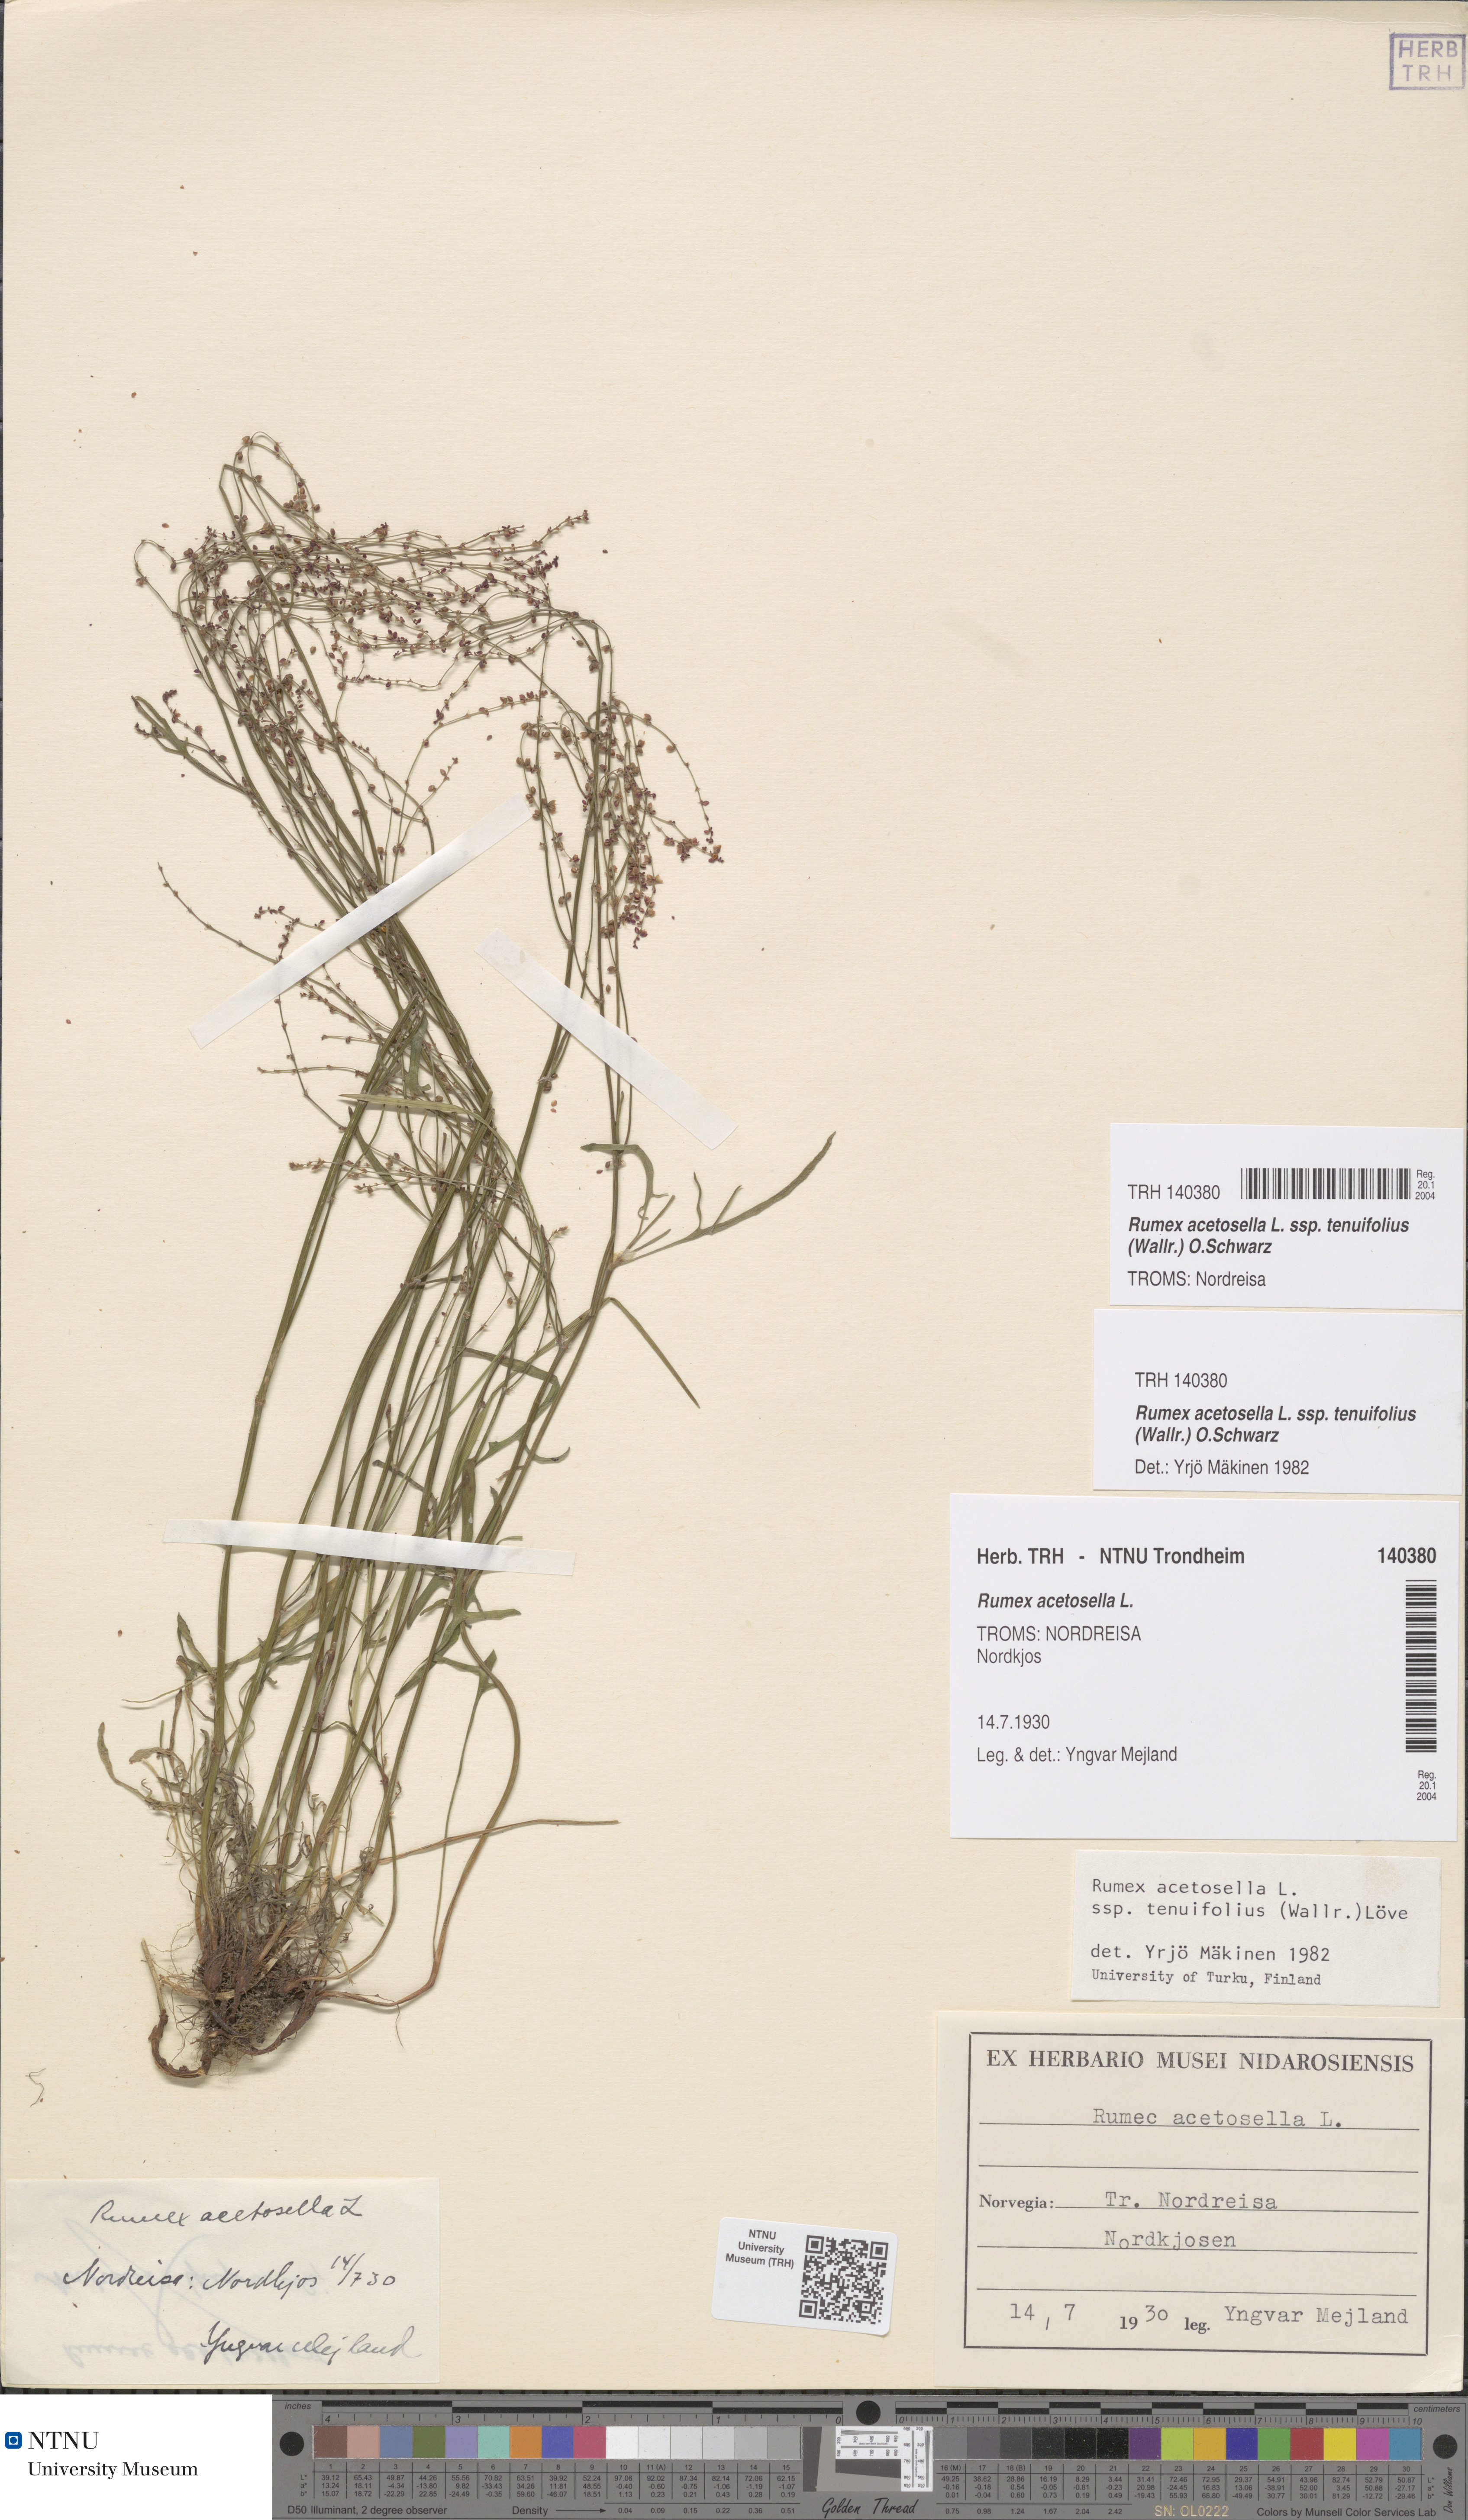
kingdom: Plantae
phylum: Tracheophyta
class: Magnoliopsida
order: Caryophyllales
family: Polygonaceae
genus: Rumex
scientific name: Rumex acetosella
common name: Common sheep sorrel
